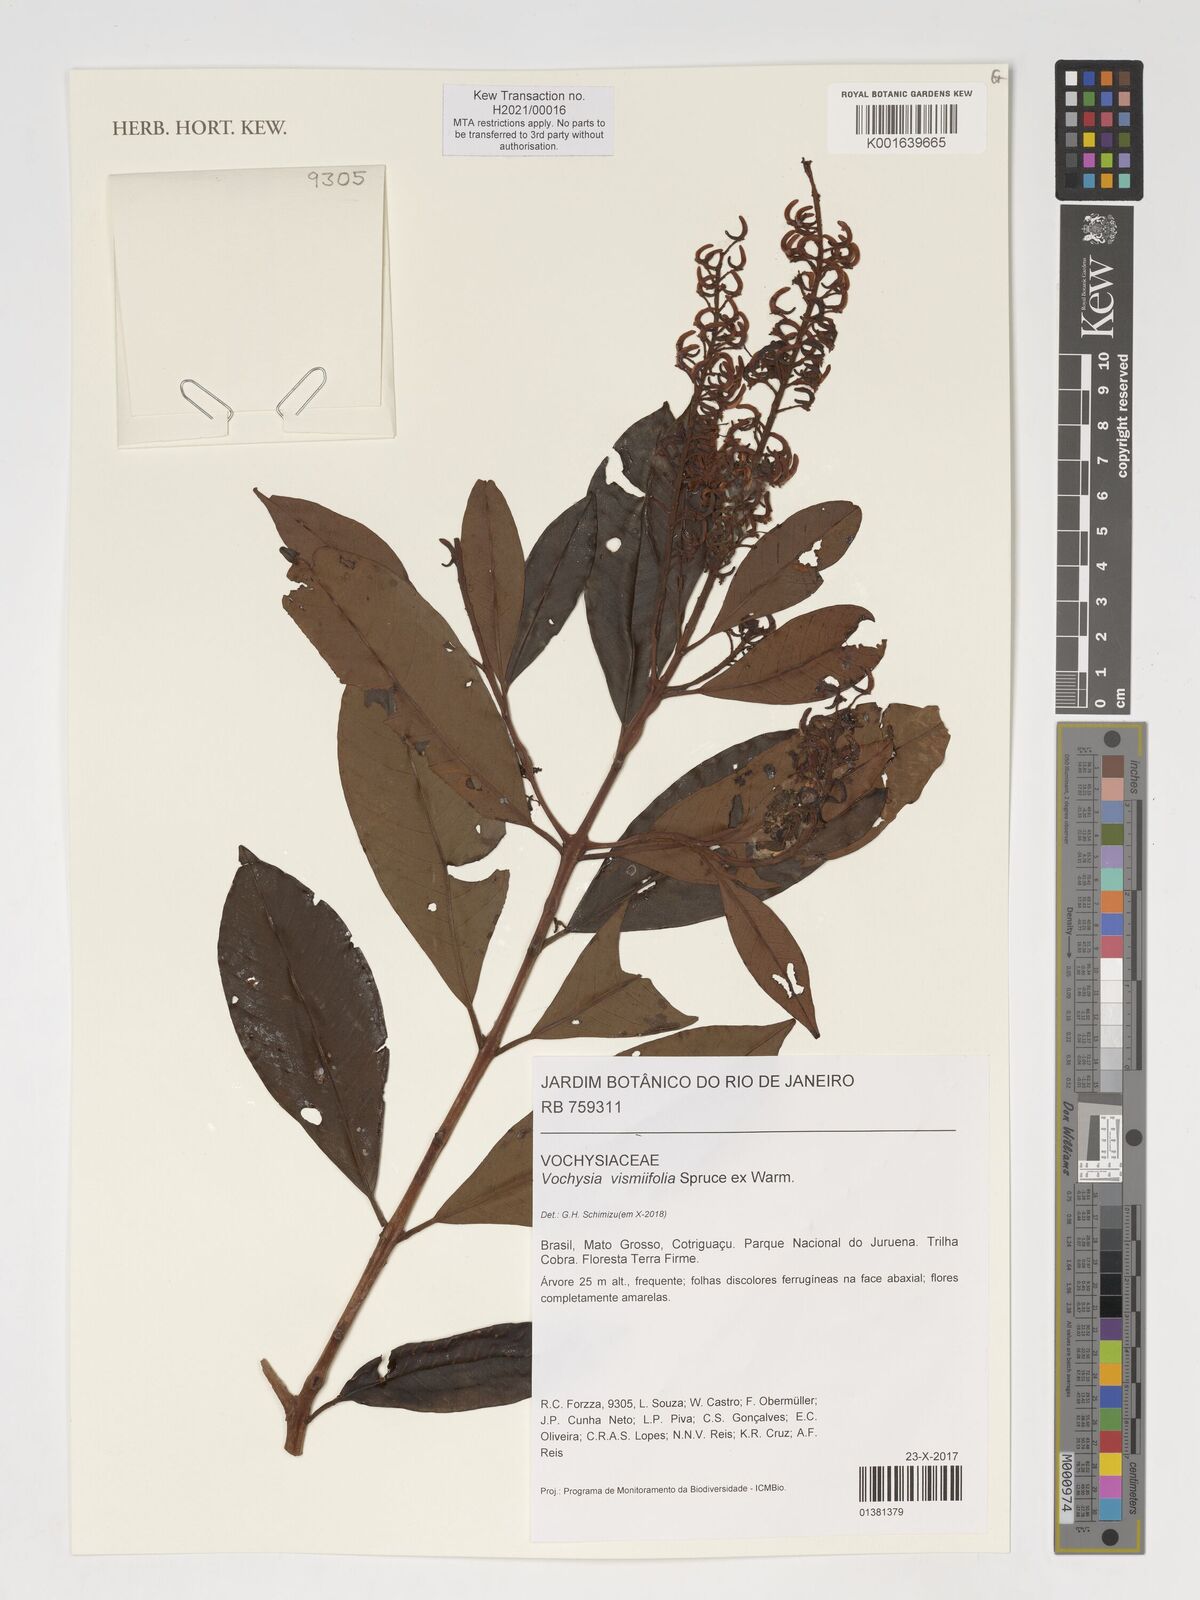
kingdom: Plantae
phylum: Tracheophyta
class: Magnoliopsida
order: Myrtales
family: Vochysiaceae
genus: Vochysia
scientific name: Vochysia vismiifolia
